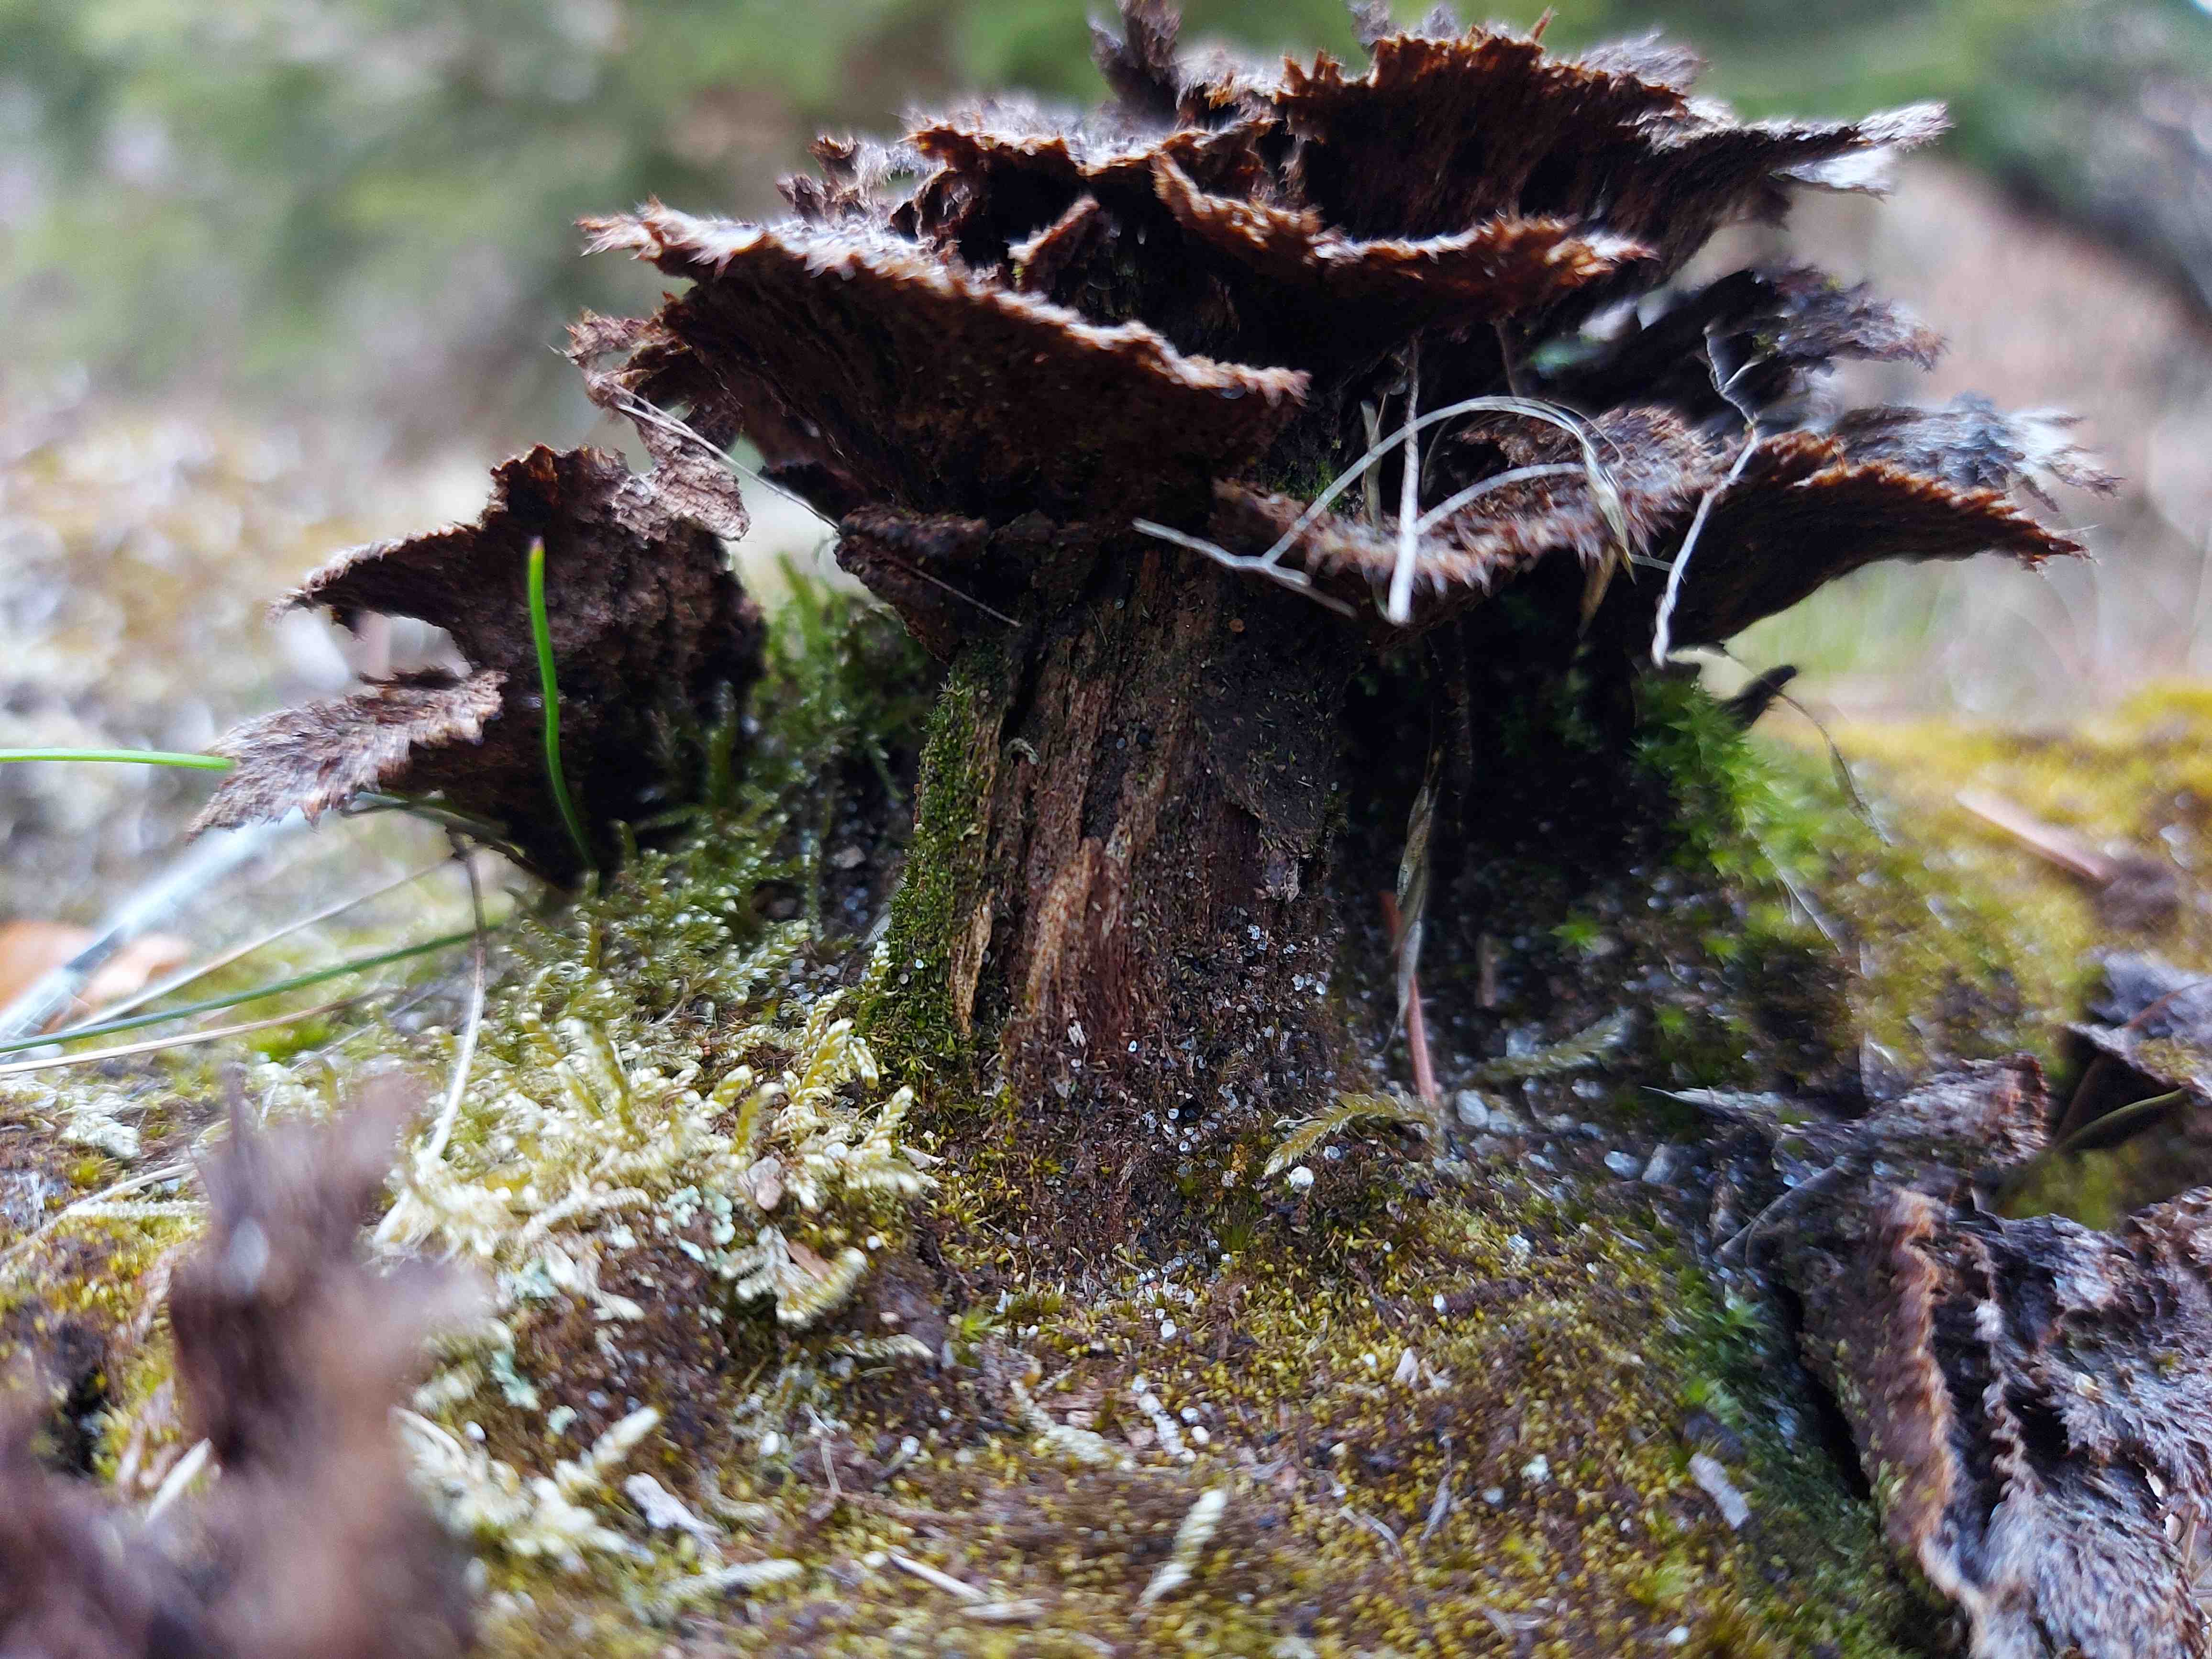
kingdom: Fungi
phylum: Basidiomycota
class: Agaricomycetes
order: Thelephorales
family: Thelephoraceae
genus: Thelephora
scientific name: Thelephora terrestris
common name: fliget frynsesvamp
